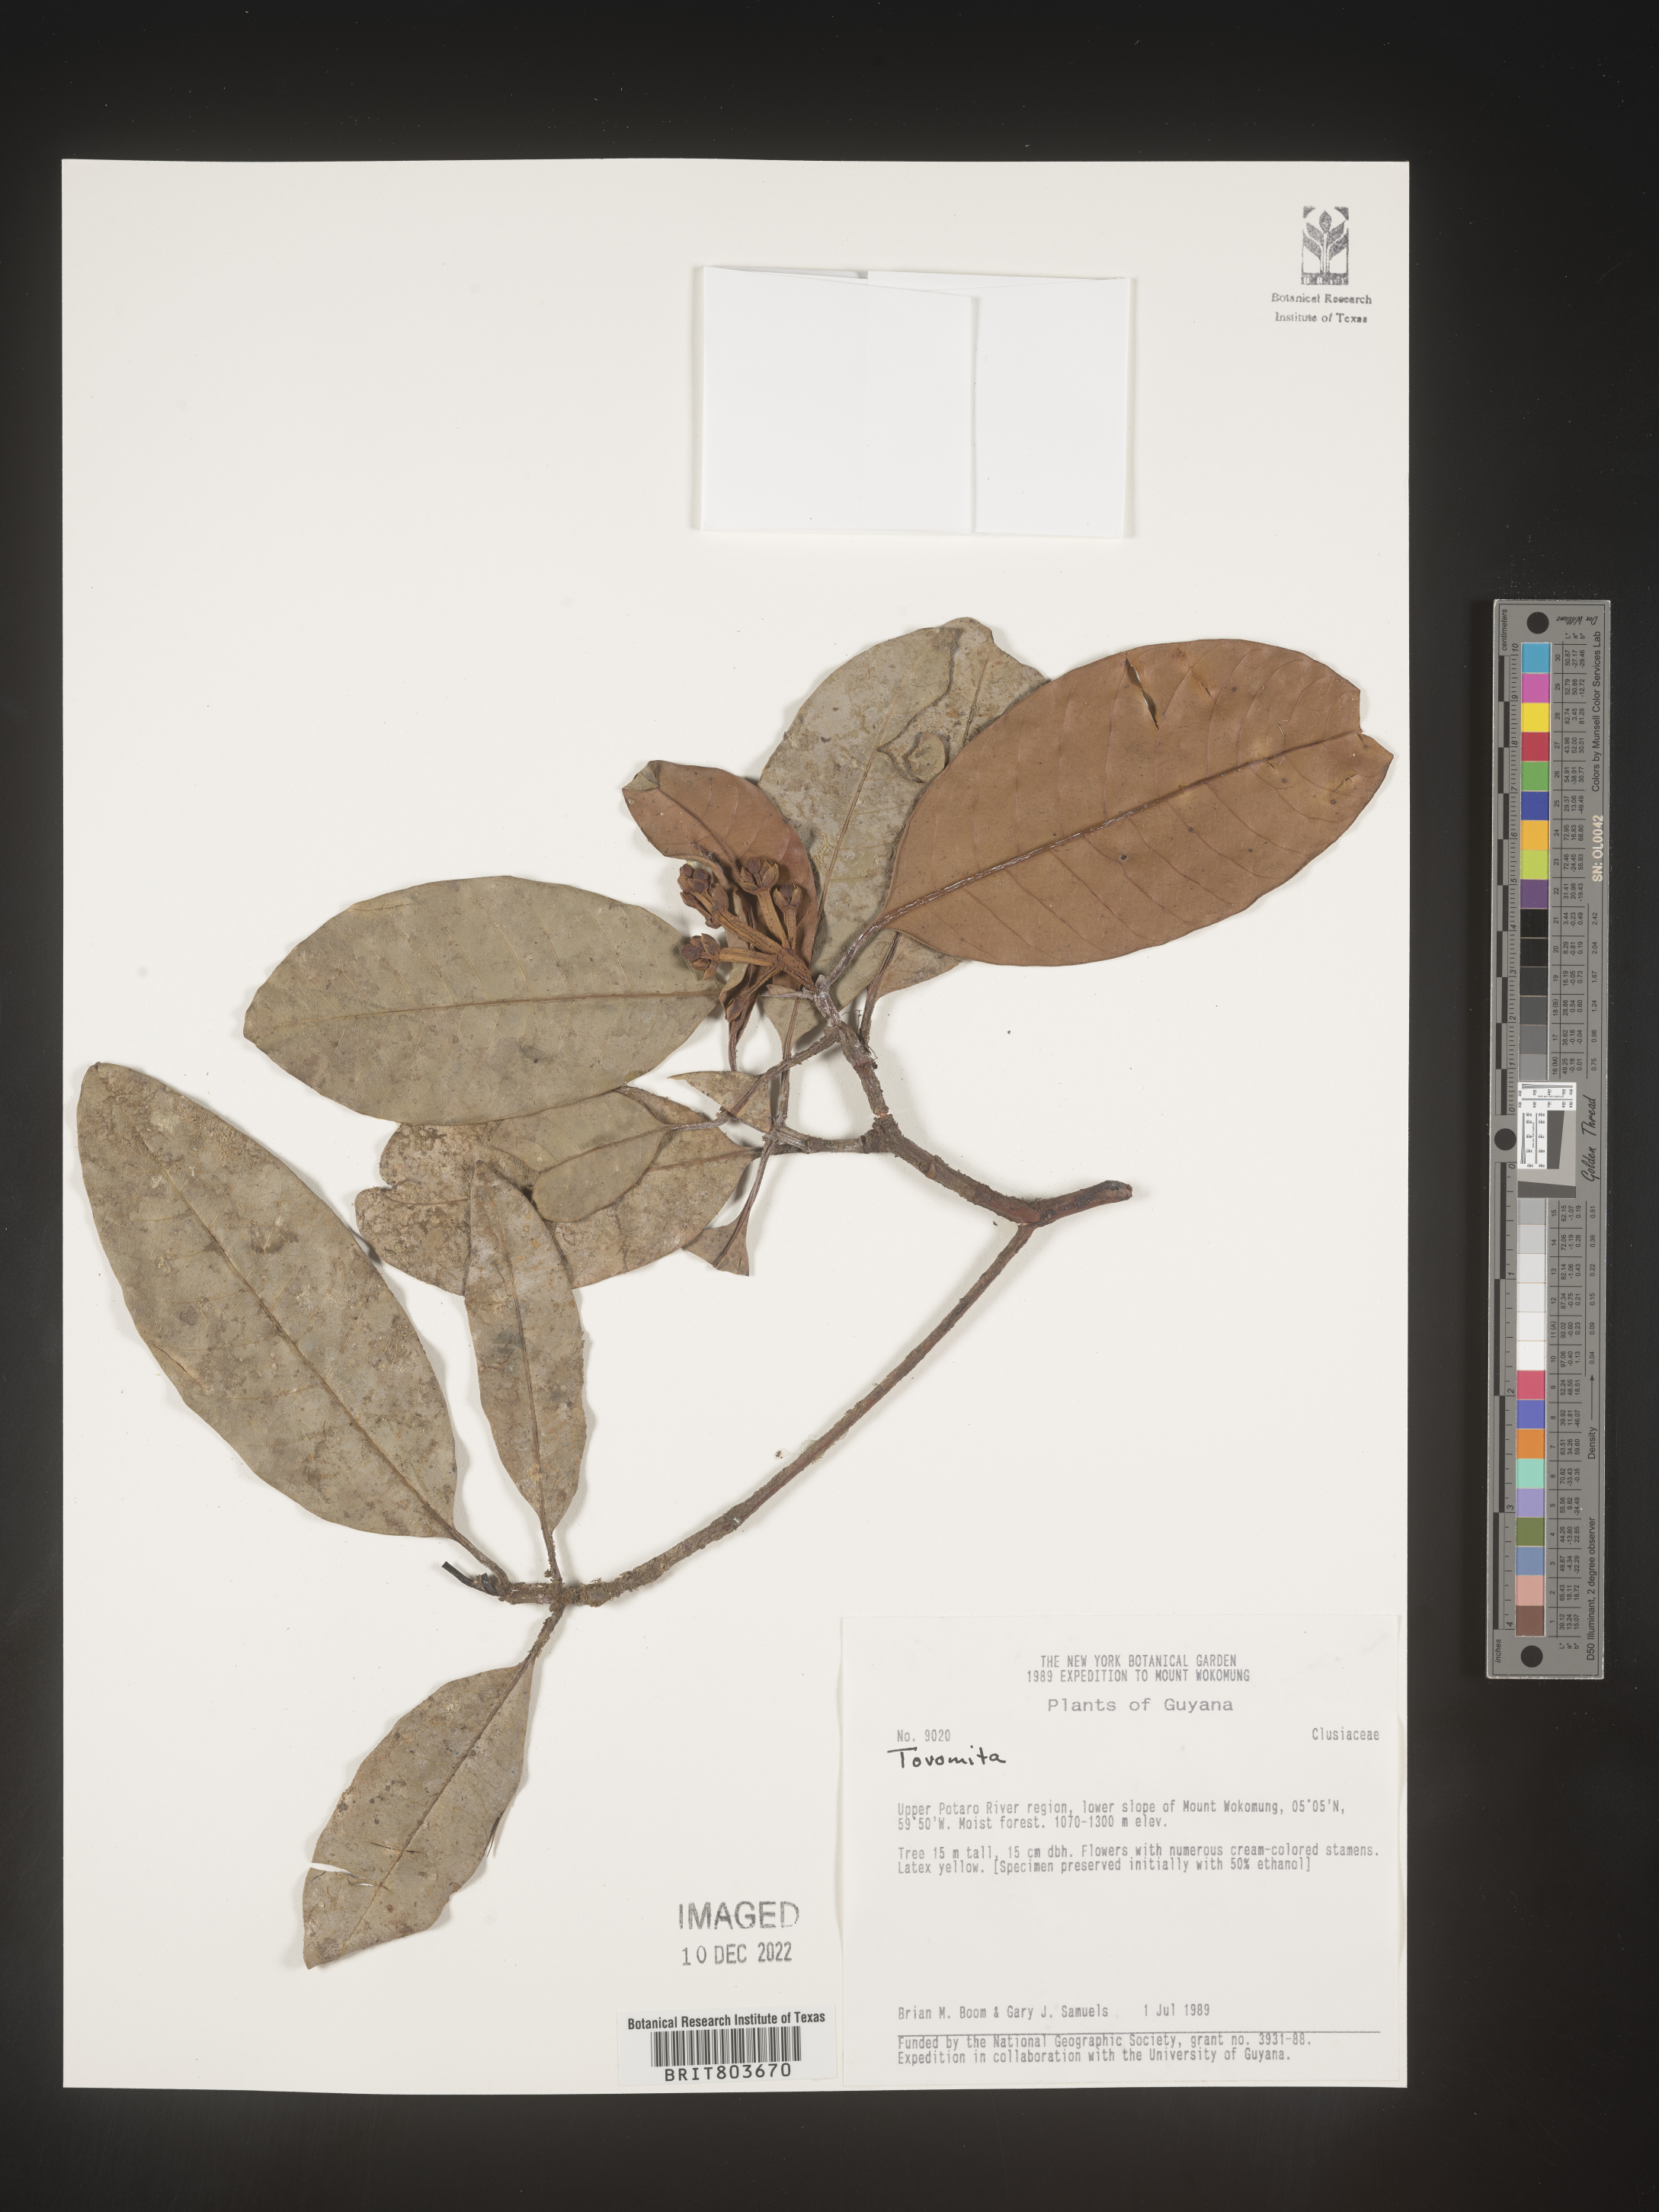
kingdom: Plantae
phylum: Tracheophyta
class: Magnoliopsida
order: Malpighiales
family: Clusiaceae
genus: Tovomita
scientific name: Tovomita
